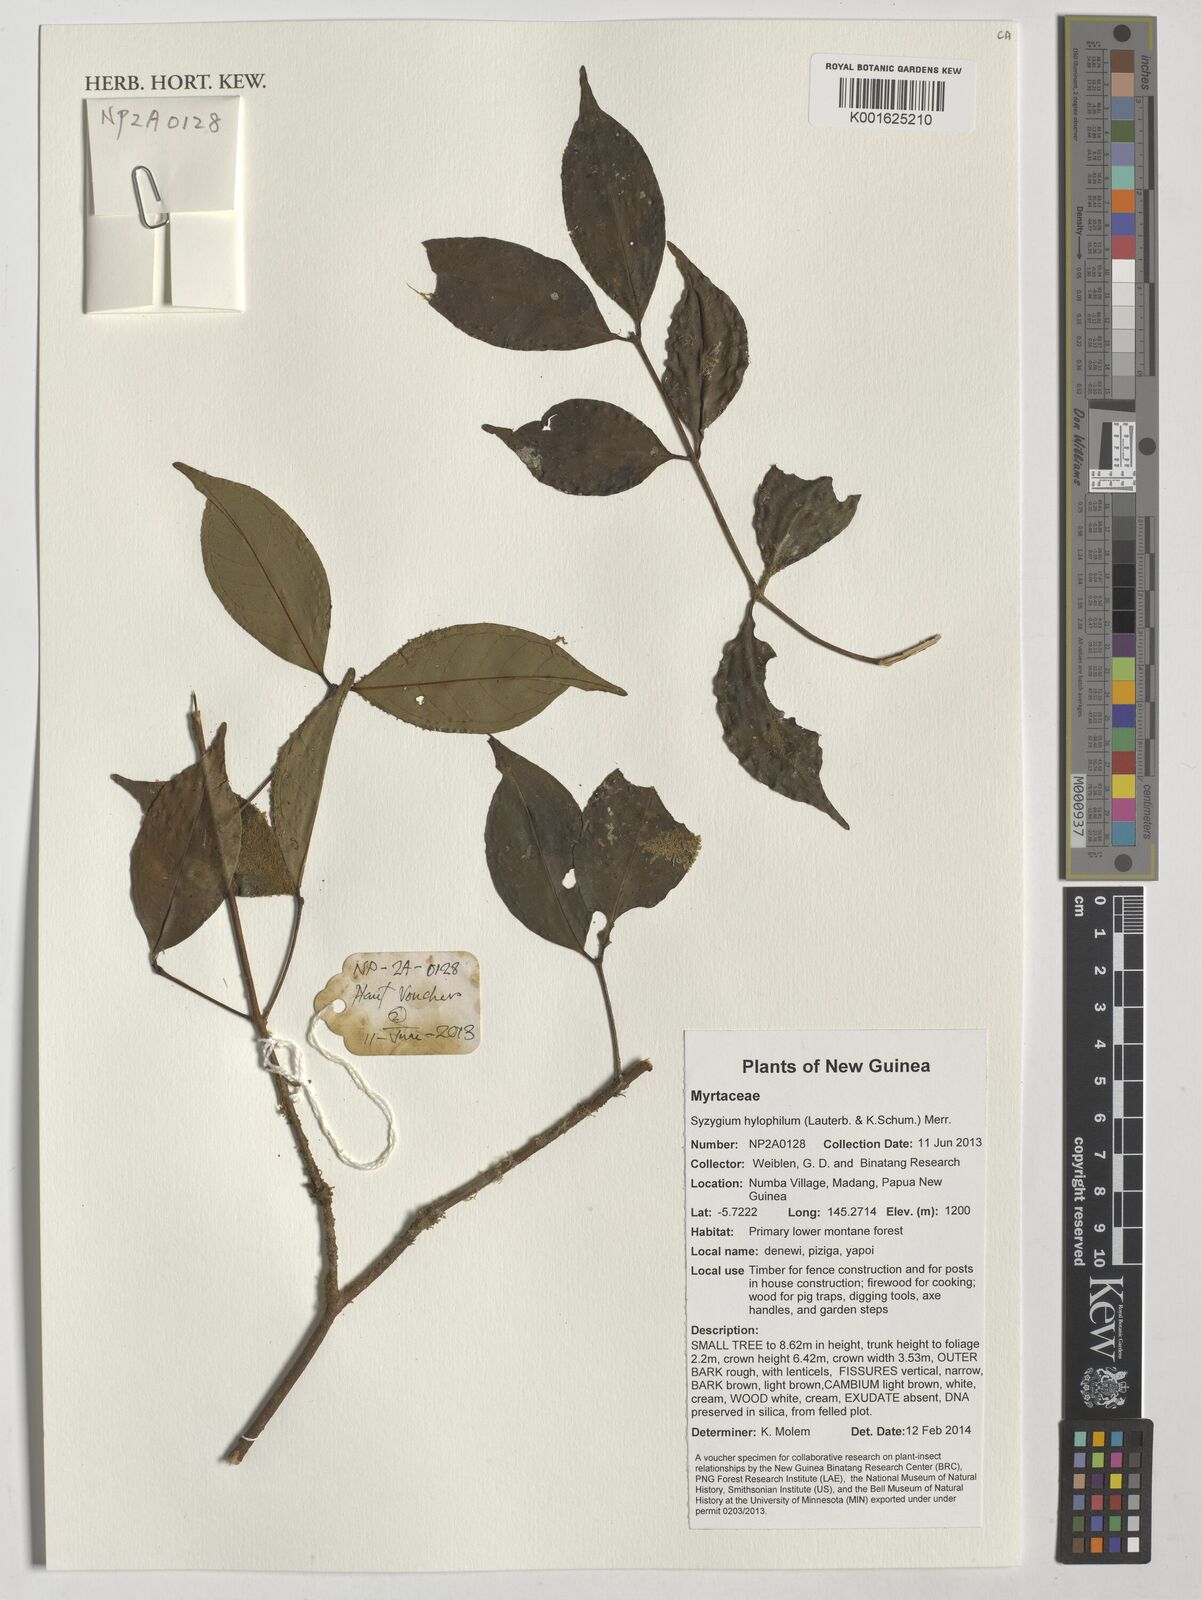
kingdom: Plantae
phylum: Tracheophyta
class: Magnoliopsida
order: Myrtales
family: Myrtaceae
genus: Syzygium
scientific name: Syzygium hylophilum
